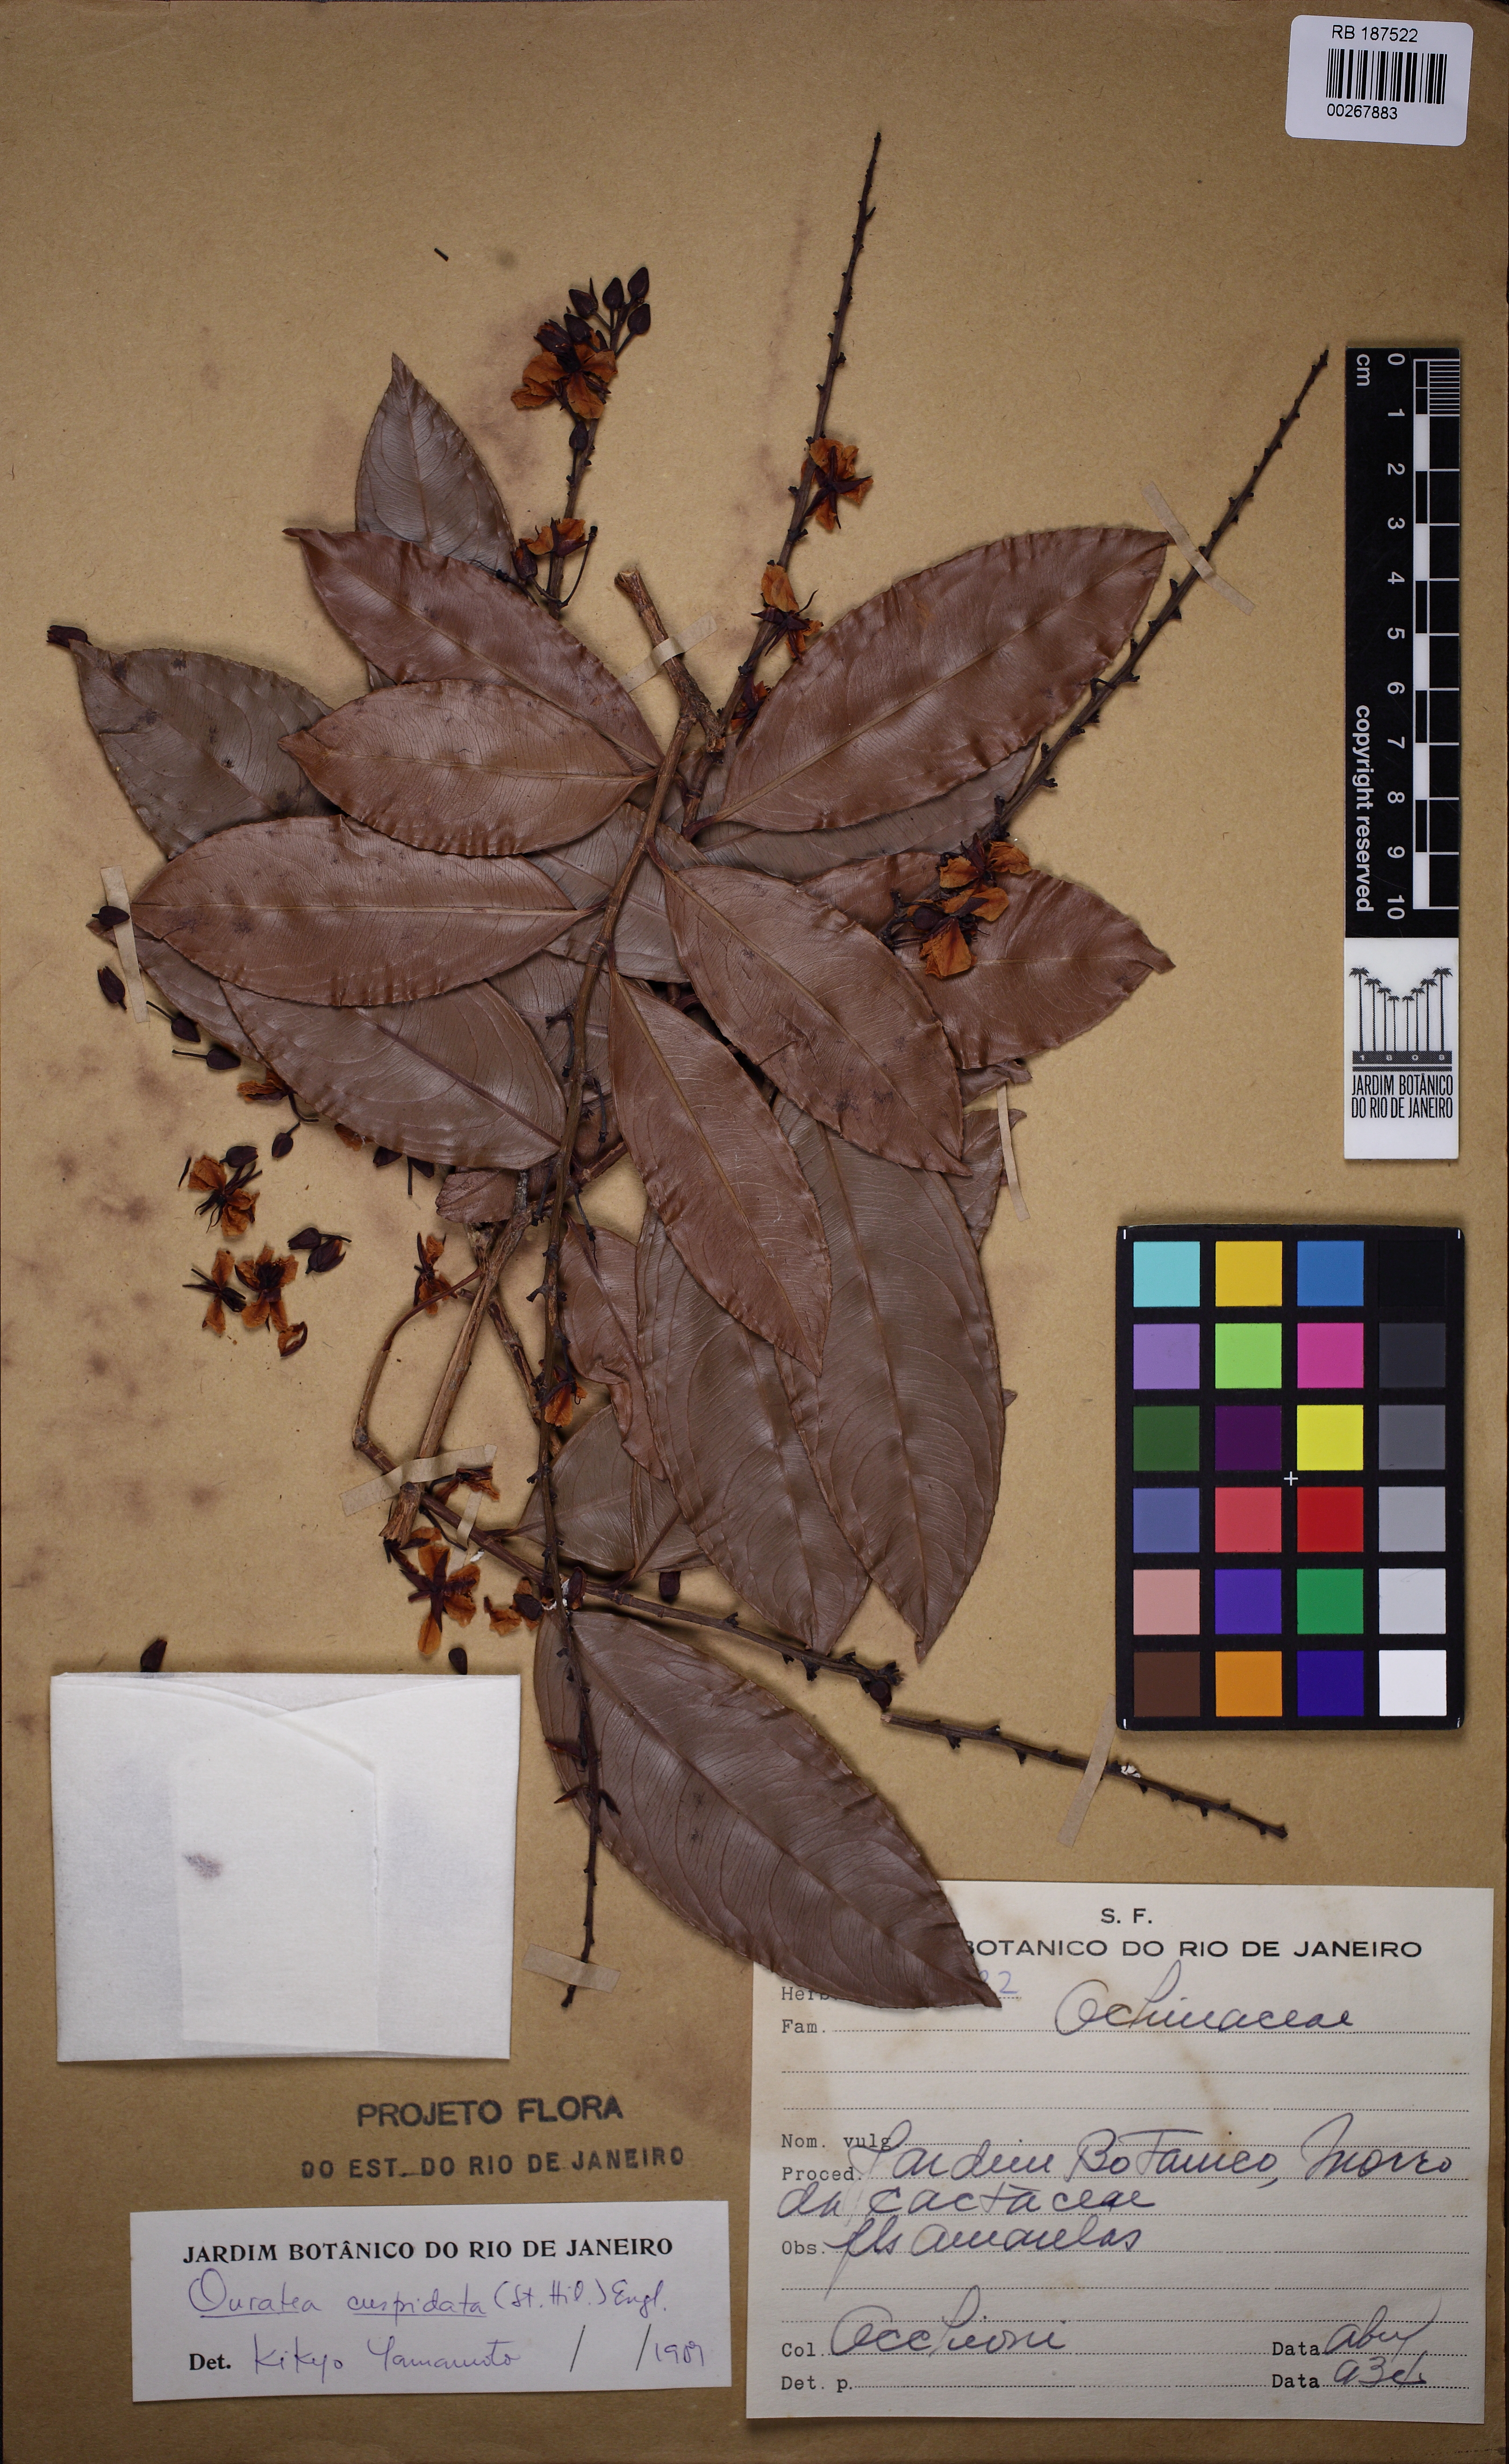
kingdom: Plantae
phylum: Tracheophyta
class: Magnoliopsida
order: Malpighiales
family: Ochnaceae
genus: Ouratea
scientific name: Ouratea cuspidata
